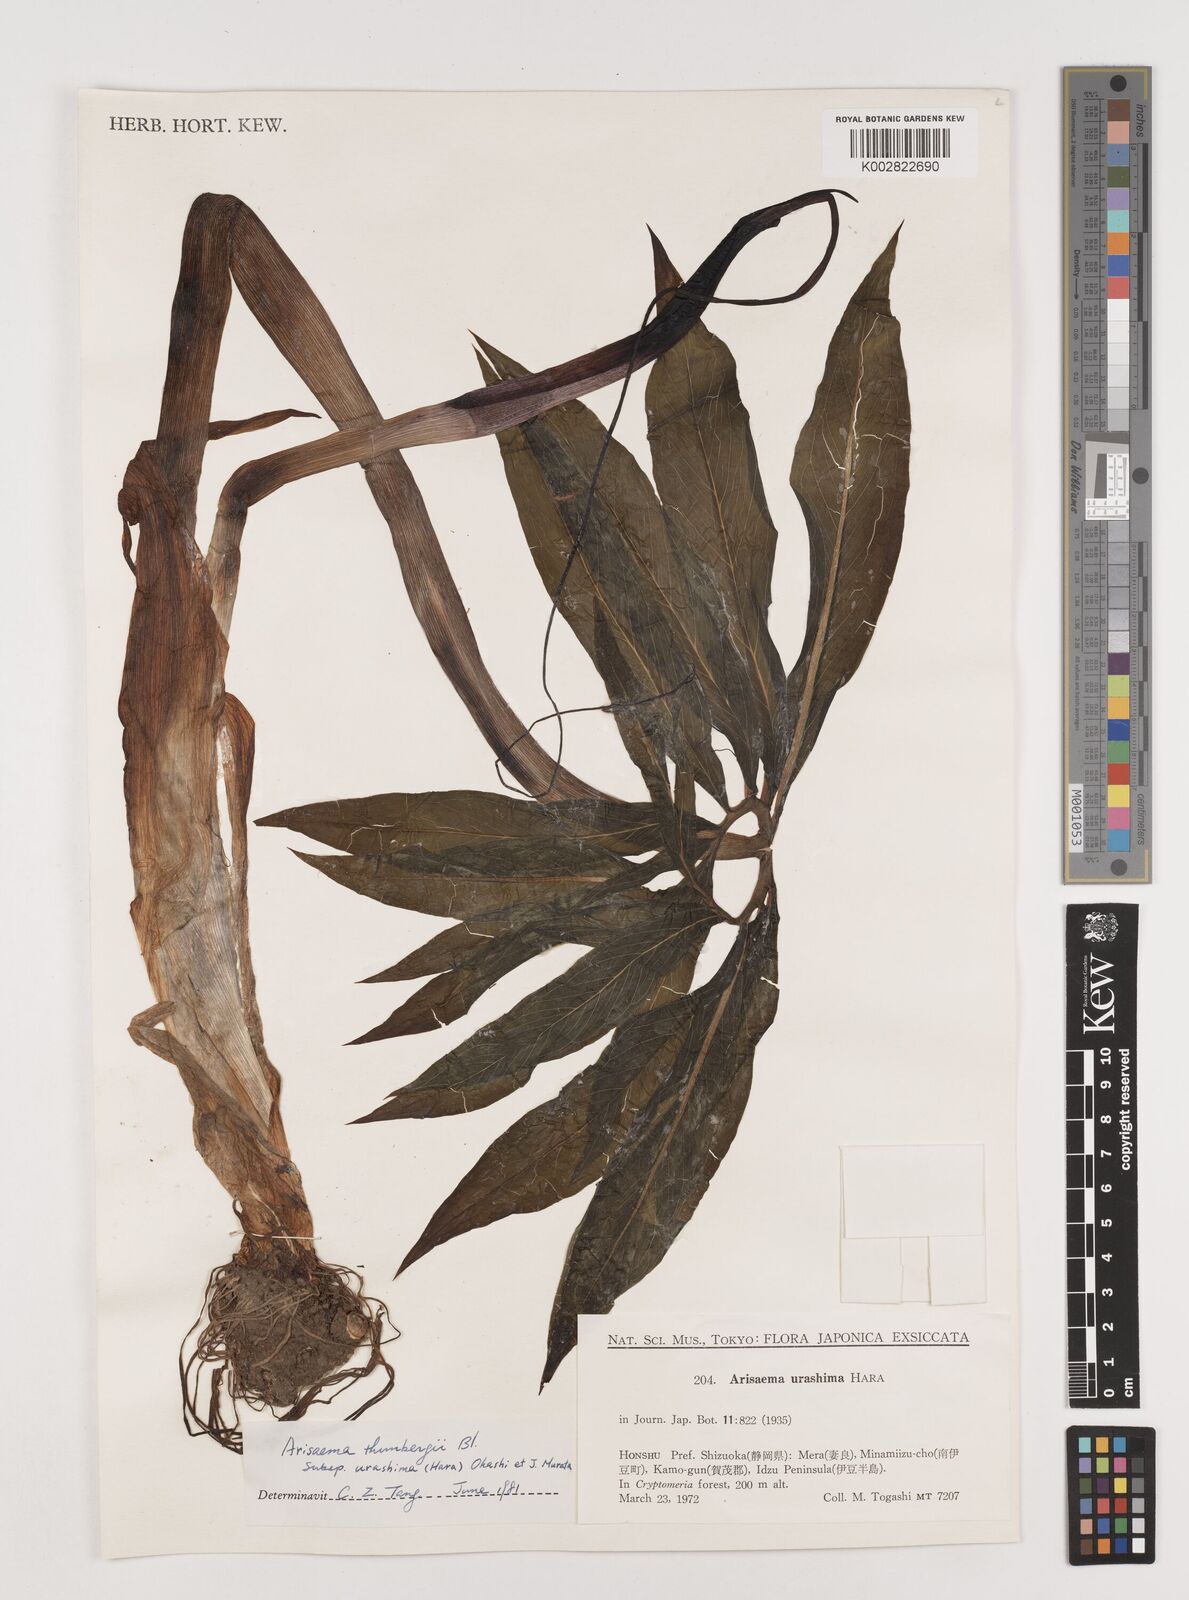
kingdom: Plantae
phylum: Tracheophyta
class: Liliopsida
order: Alismatales
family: Araceae
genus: Arisaema
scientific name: Arisaema thunbergii
